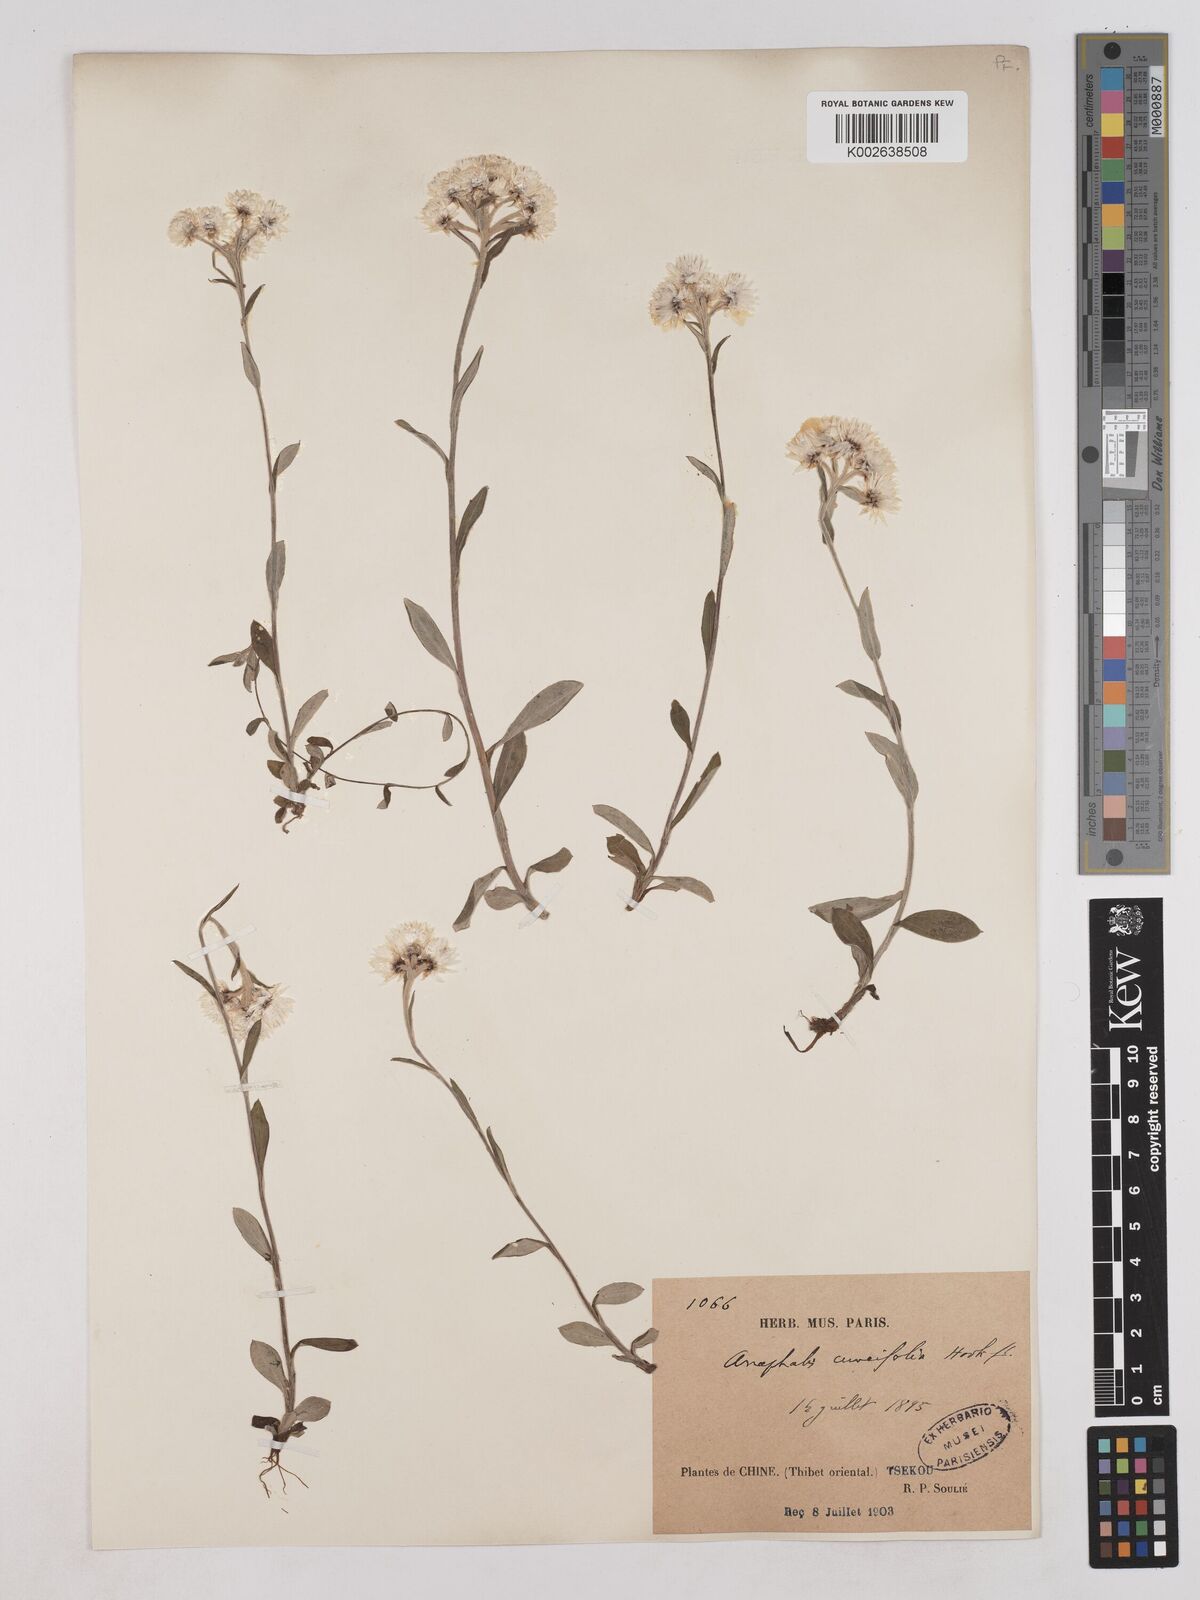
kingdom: Plantae
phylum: Tracheophyta
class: Magnoliopsida
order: Asterales
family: Asteraceae
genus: Anaphalis
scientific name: Anaphalis nepalensis
